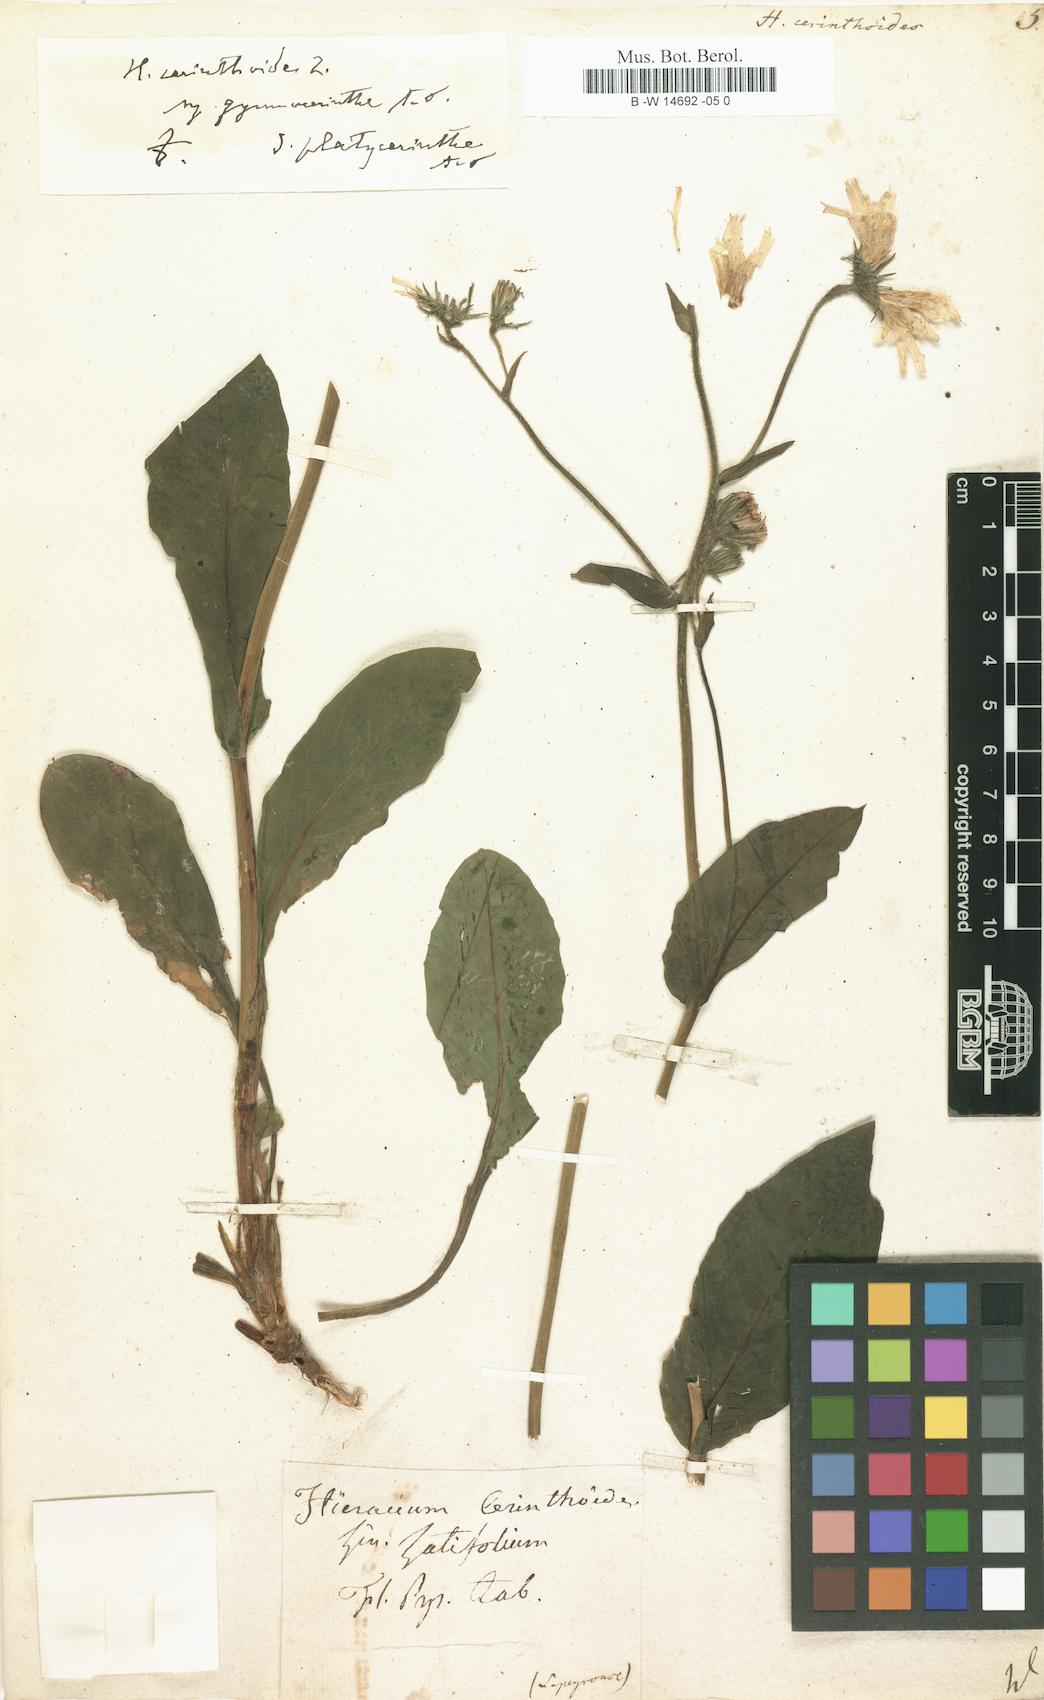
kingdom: Plantae
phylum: Tracheophyta
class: Magnoliopsida
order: Asterales
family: Asteraceae
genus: Hieracium
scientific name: Hieracium cerinthoides
